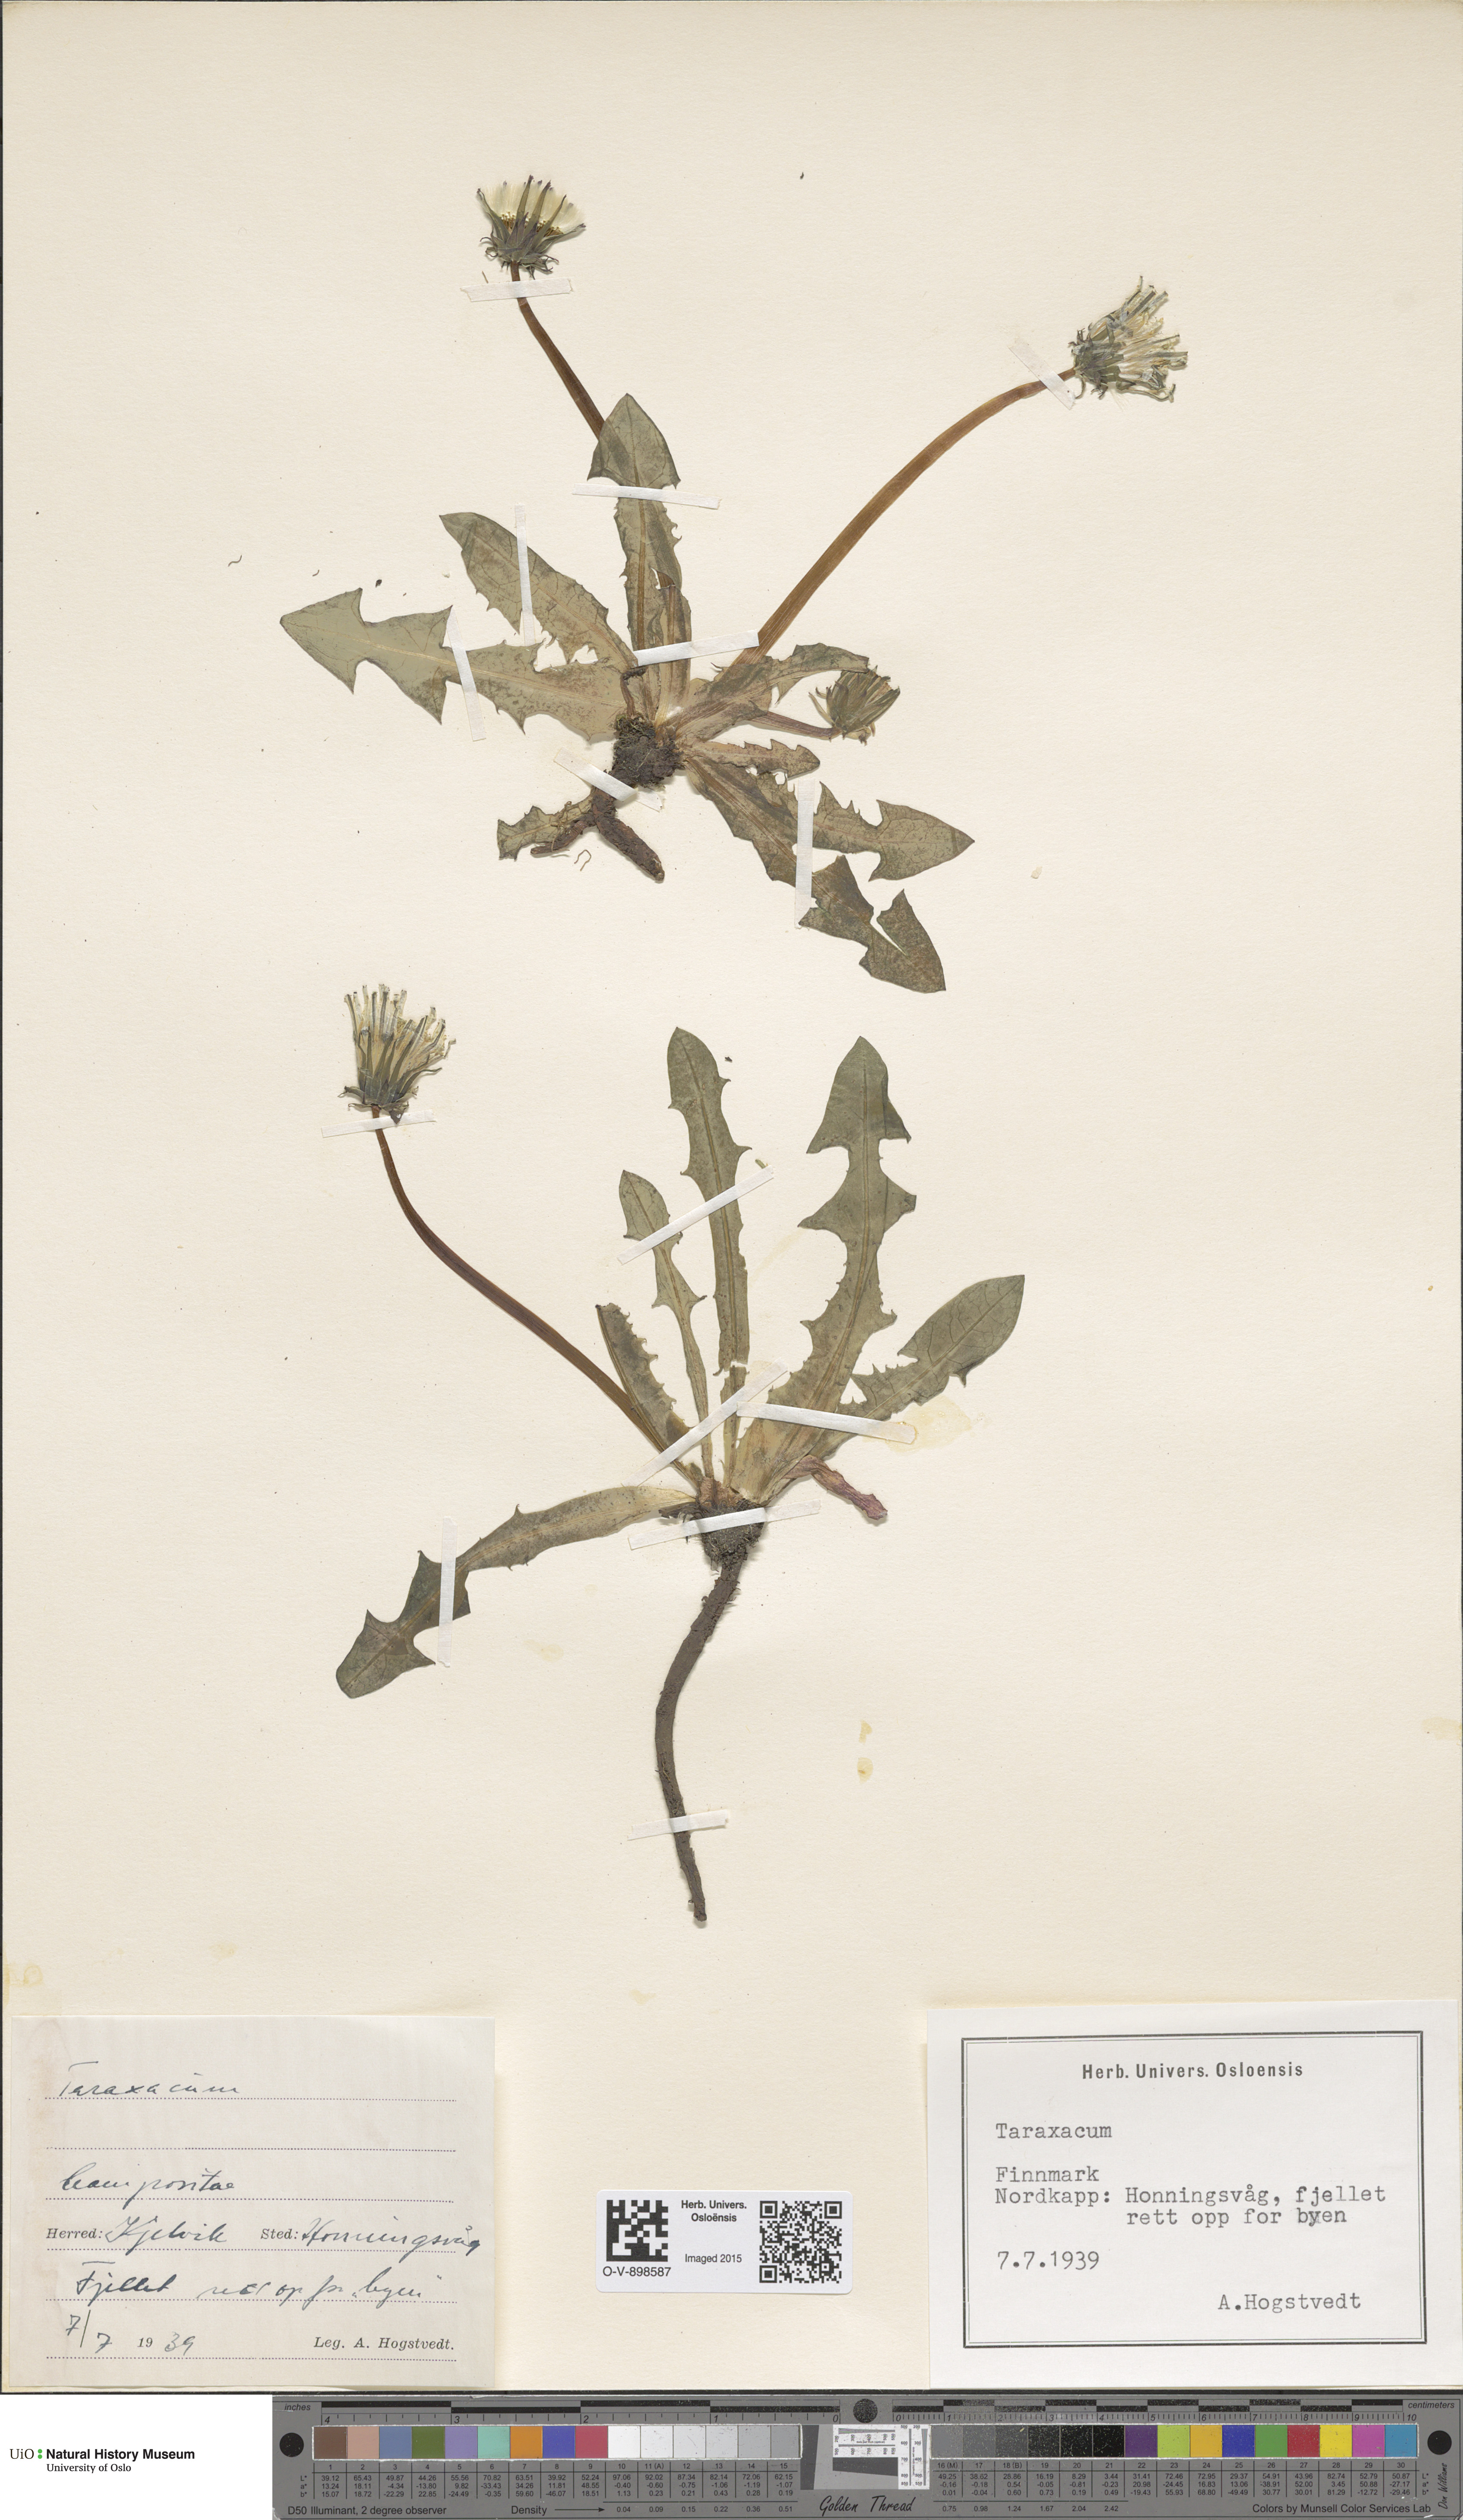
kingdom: Plantae
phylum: Tracheophyta
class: Magnoliopsida
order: Asterales
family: Asteraceae
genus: Taraxacum
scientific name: Taraxacum
